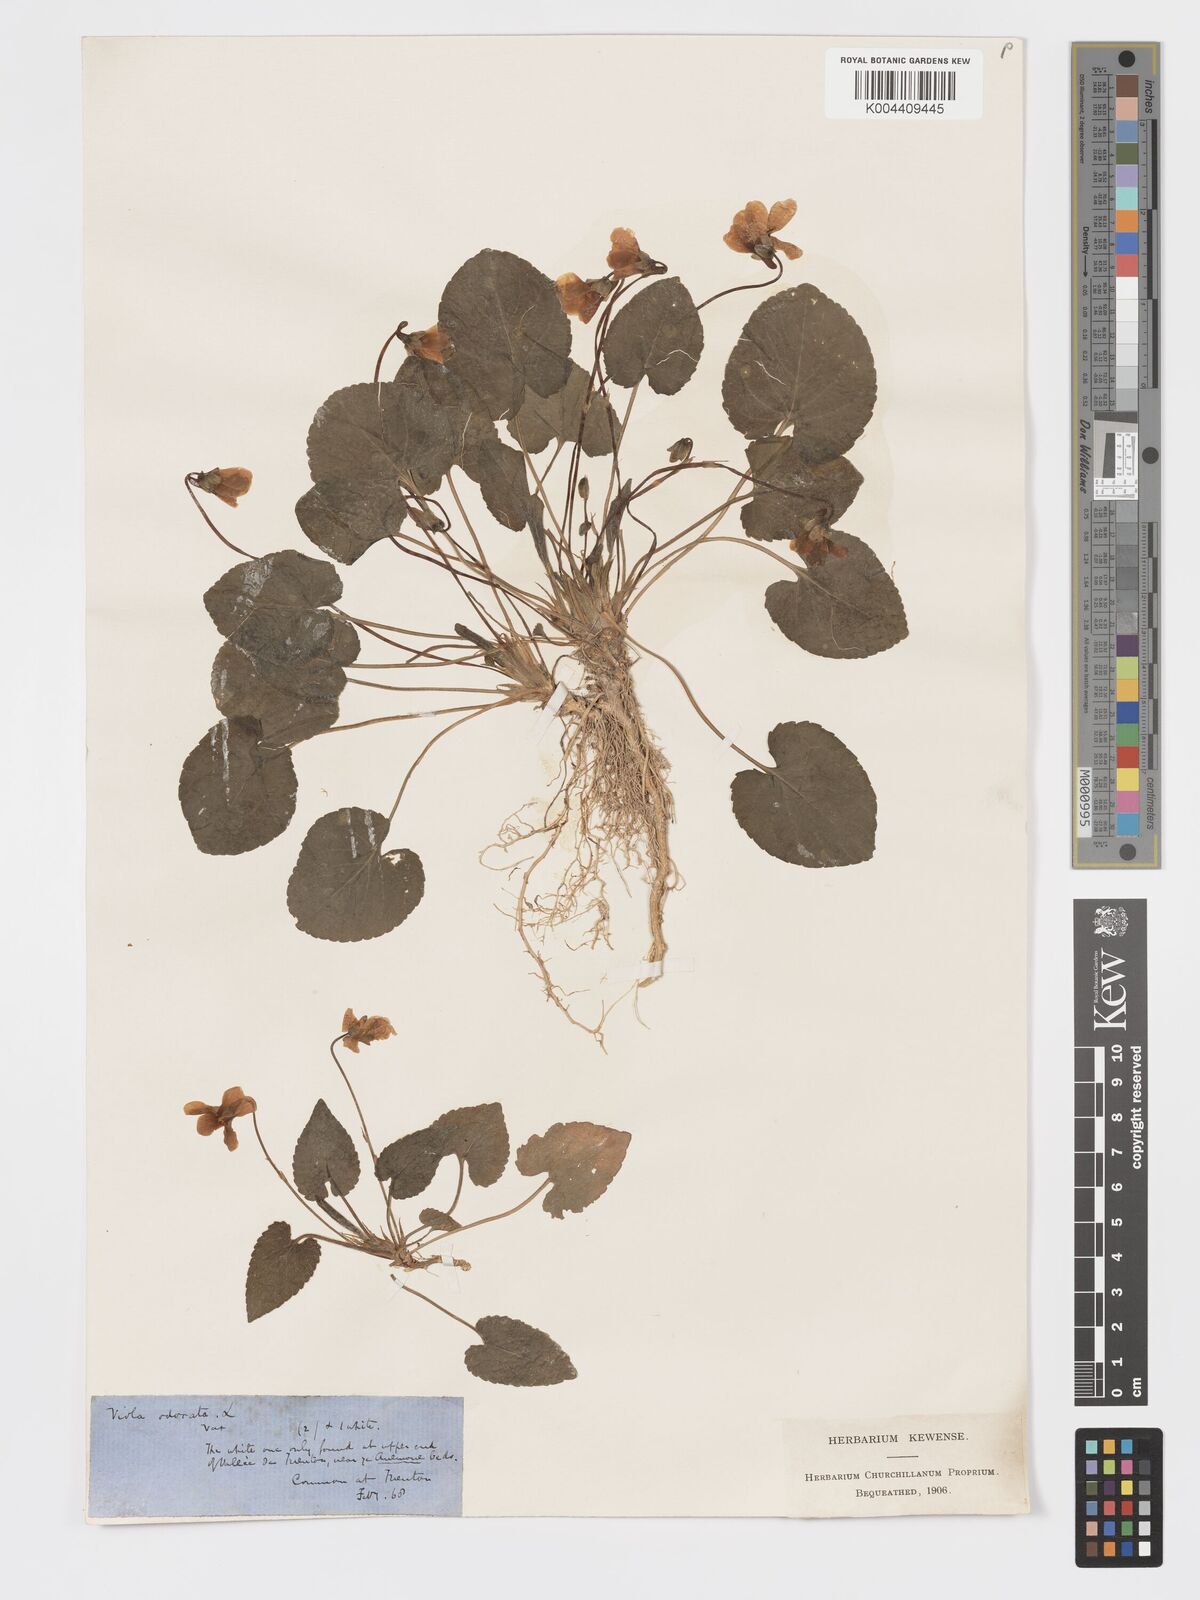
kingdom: Plantae
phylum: Tracheophyta
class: Magnoliopsida
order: Malpighiales
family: Violaceae
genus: Viola
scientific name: Viola alba
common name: White violet
